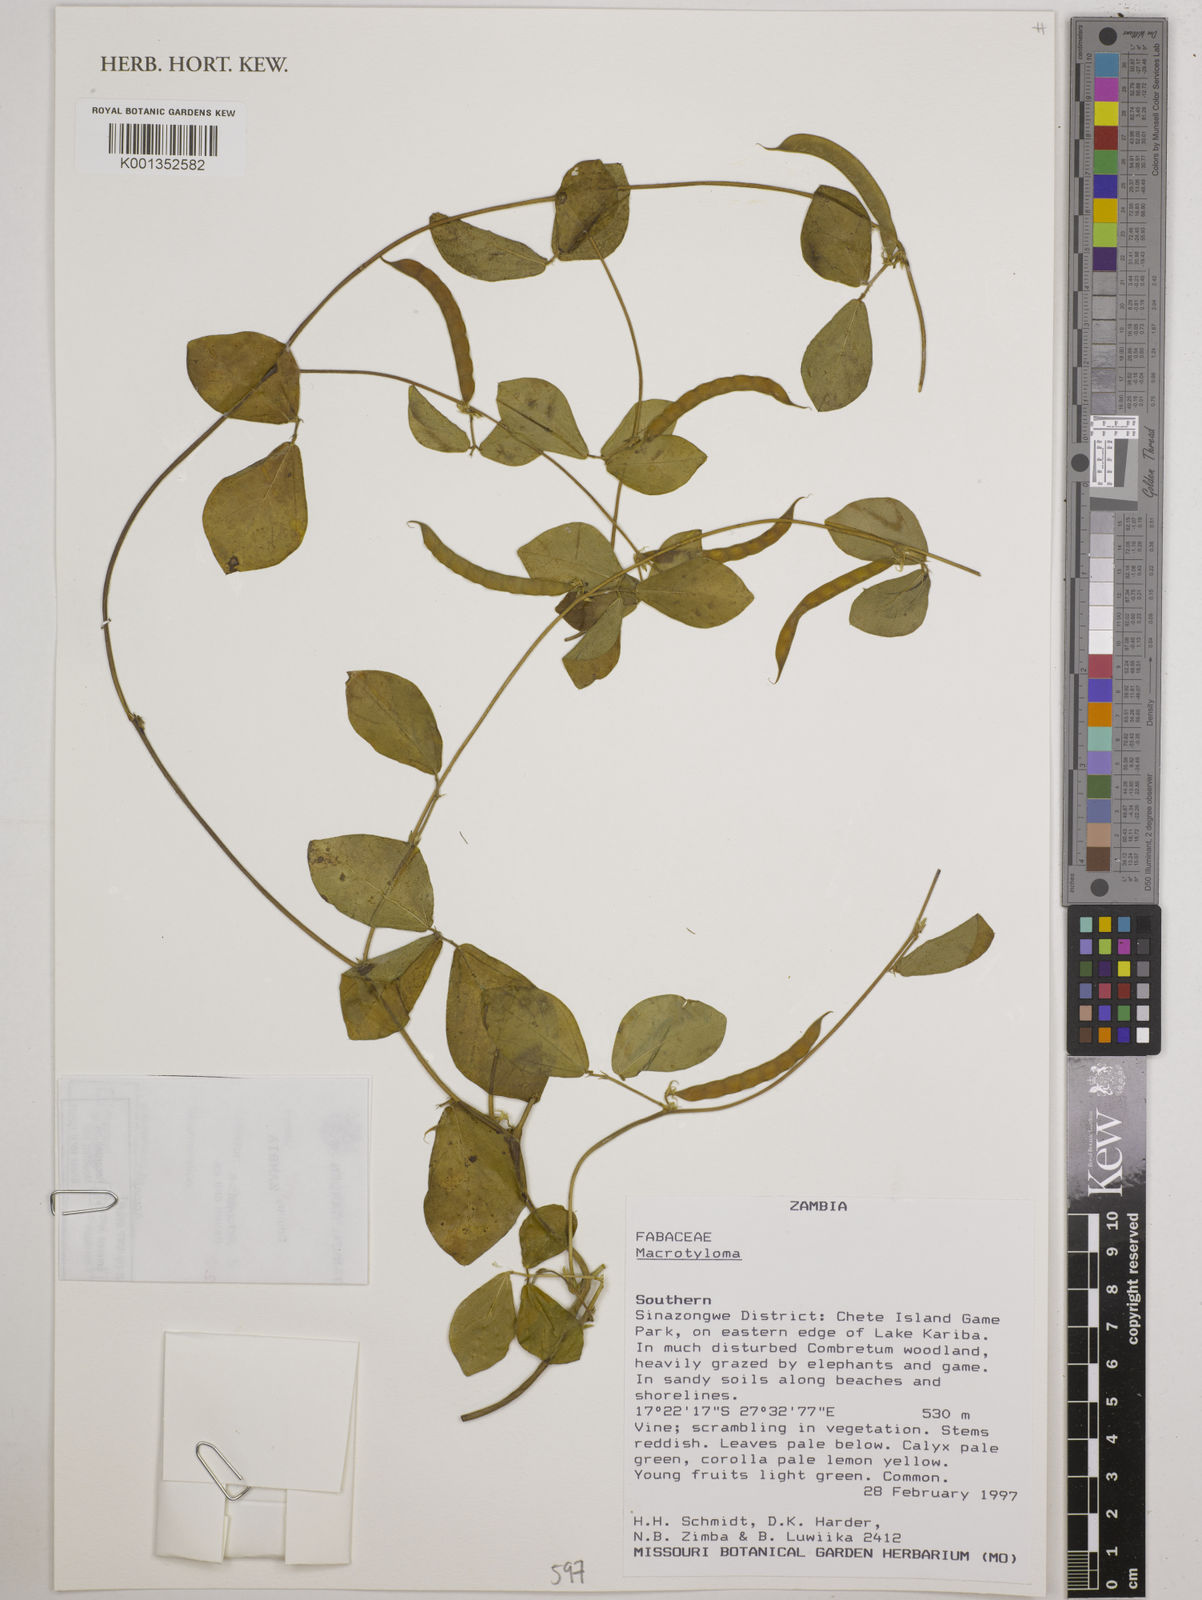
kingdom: Plantae
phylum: Tracheophyta
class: Magnoliopsida
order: Fabales
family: Fabaceae
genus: Macrotyloma
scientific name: Macrotyloma
